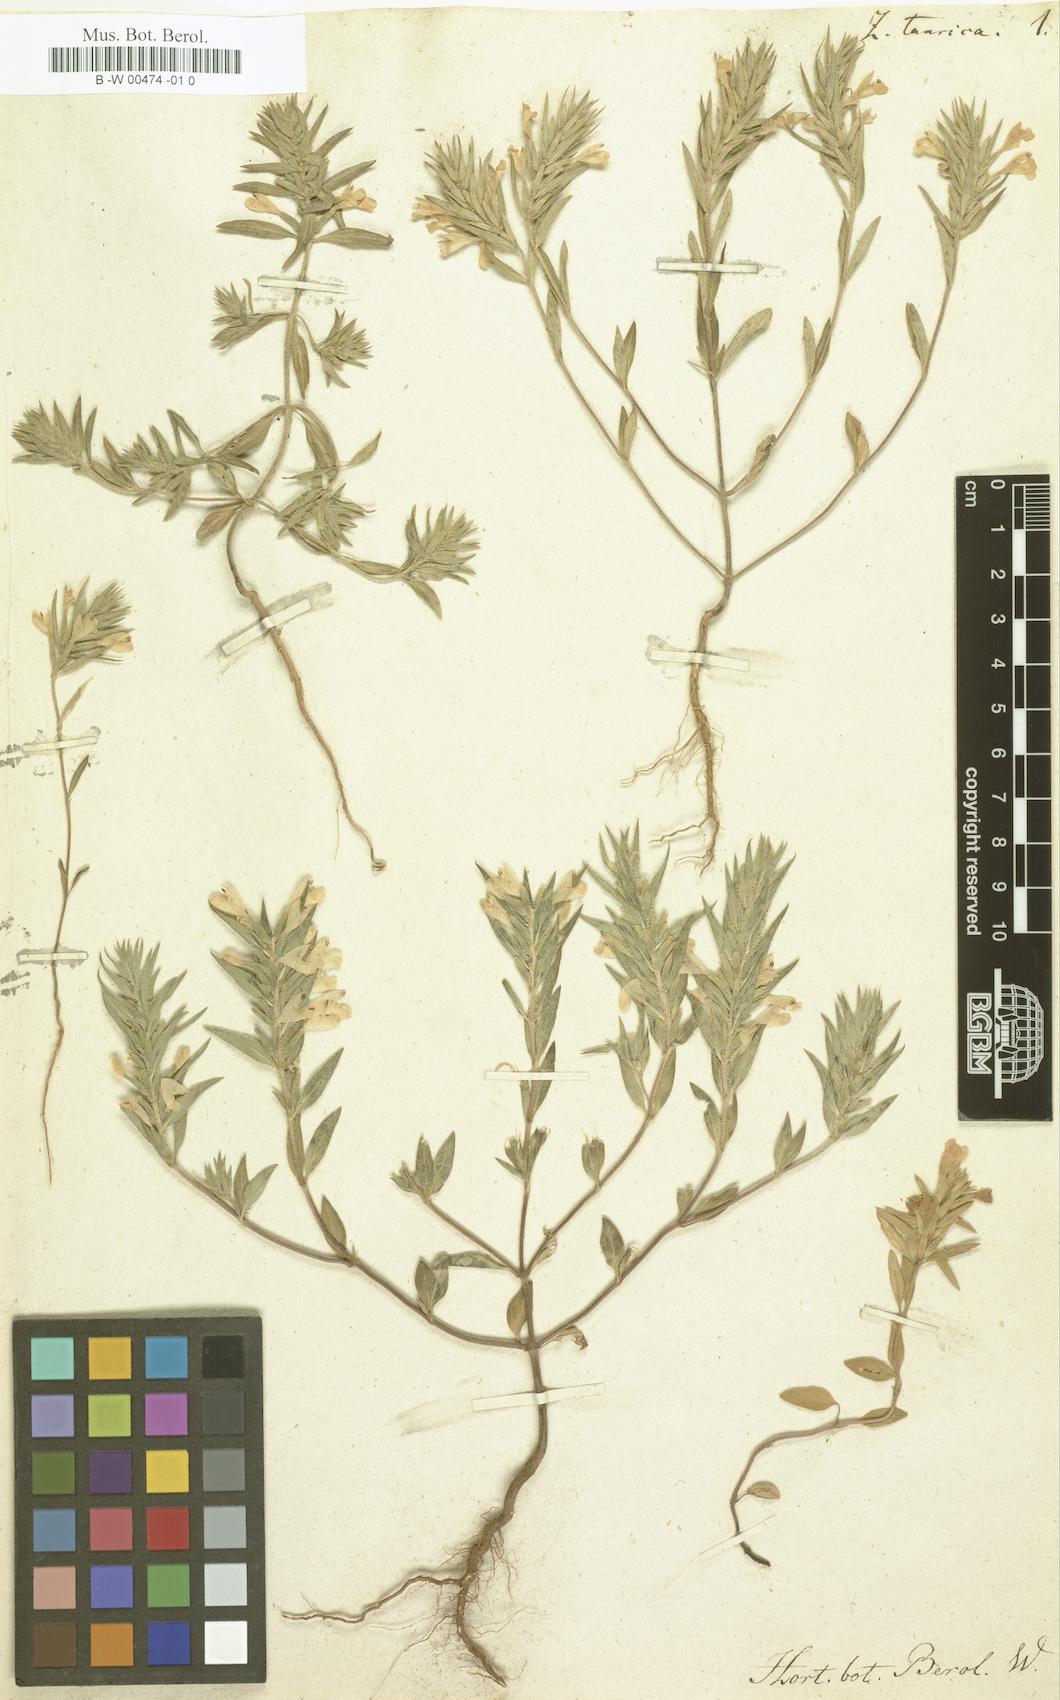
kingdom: Plantae
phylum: Tracheophyta
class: Magnoliopsida
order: Lamiales
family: Lamiaceae
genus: Ziziphora
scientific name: Ziziphora taurica
